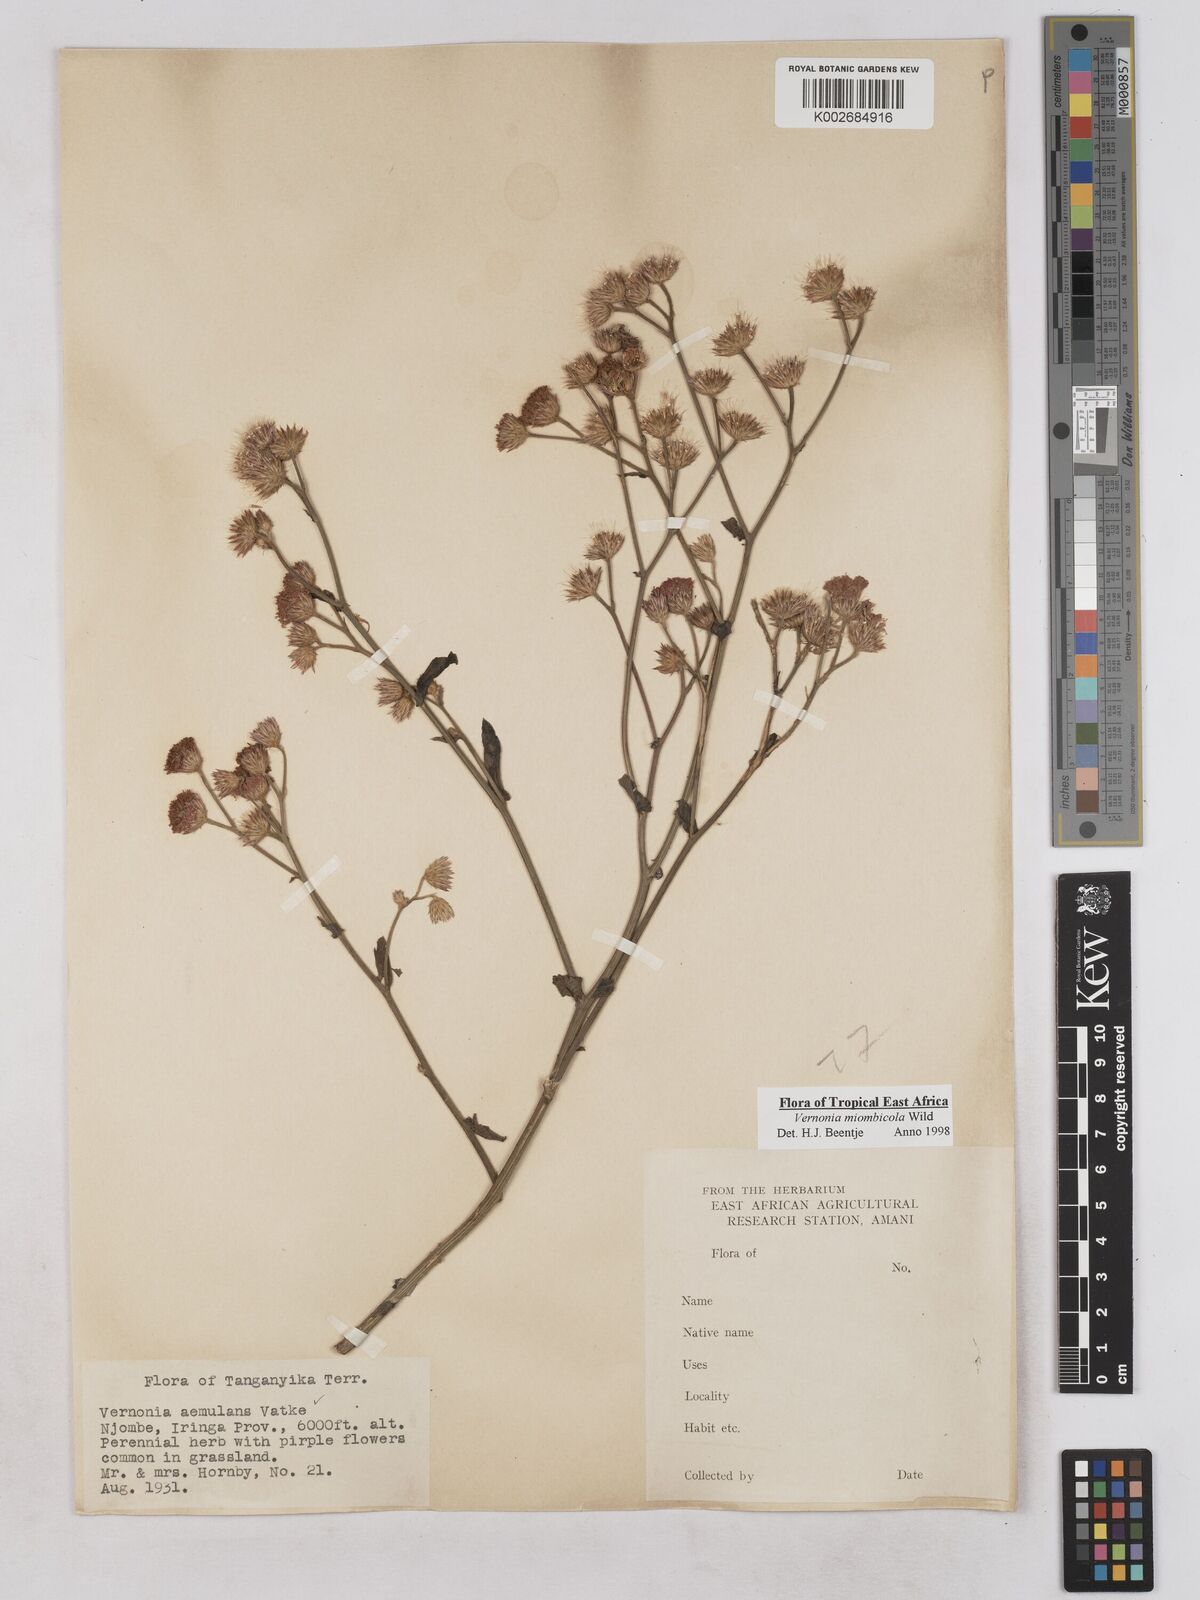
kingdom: Plantae
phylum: Tracheophyta
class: Magnoliopsida
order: Asterales
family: Asteraceae
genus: Vernonia
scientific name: Vernonia miombicola
